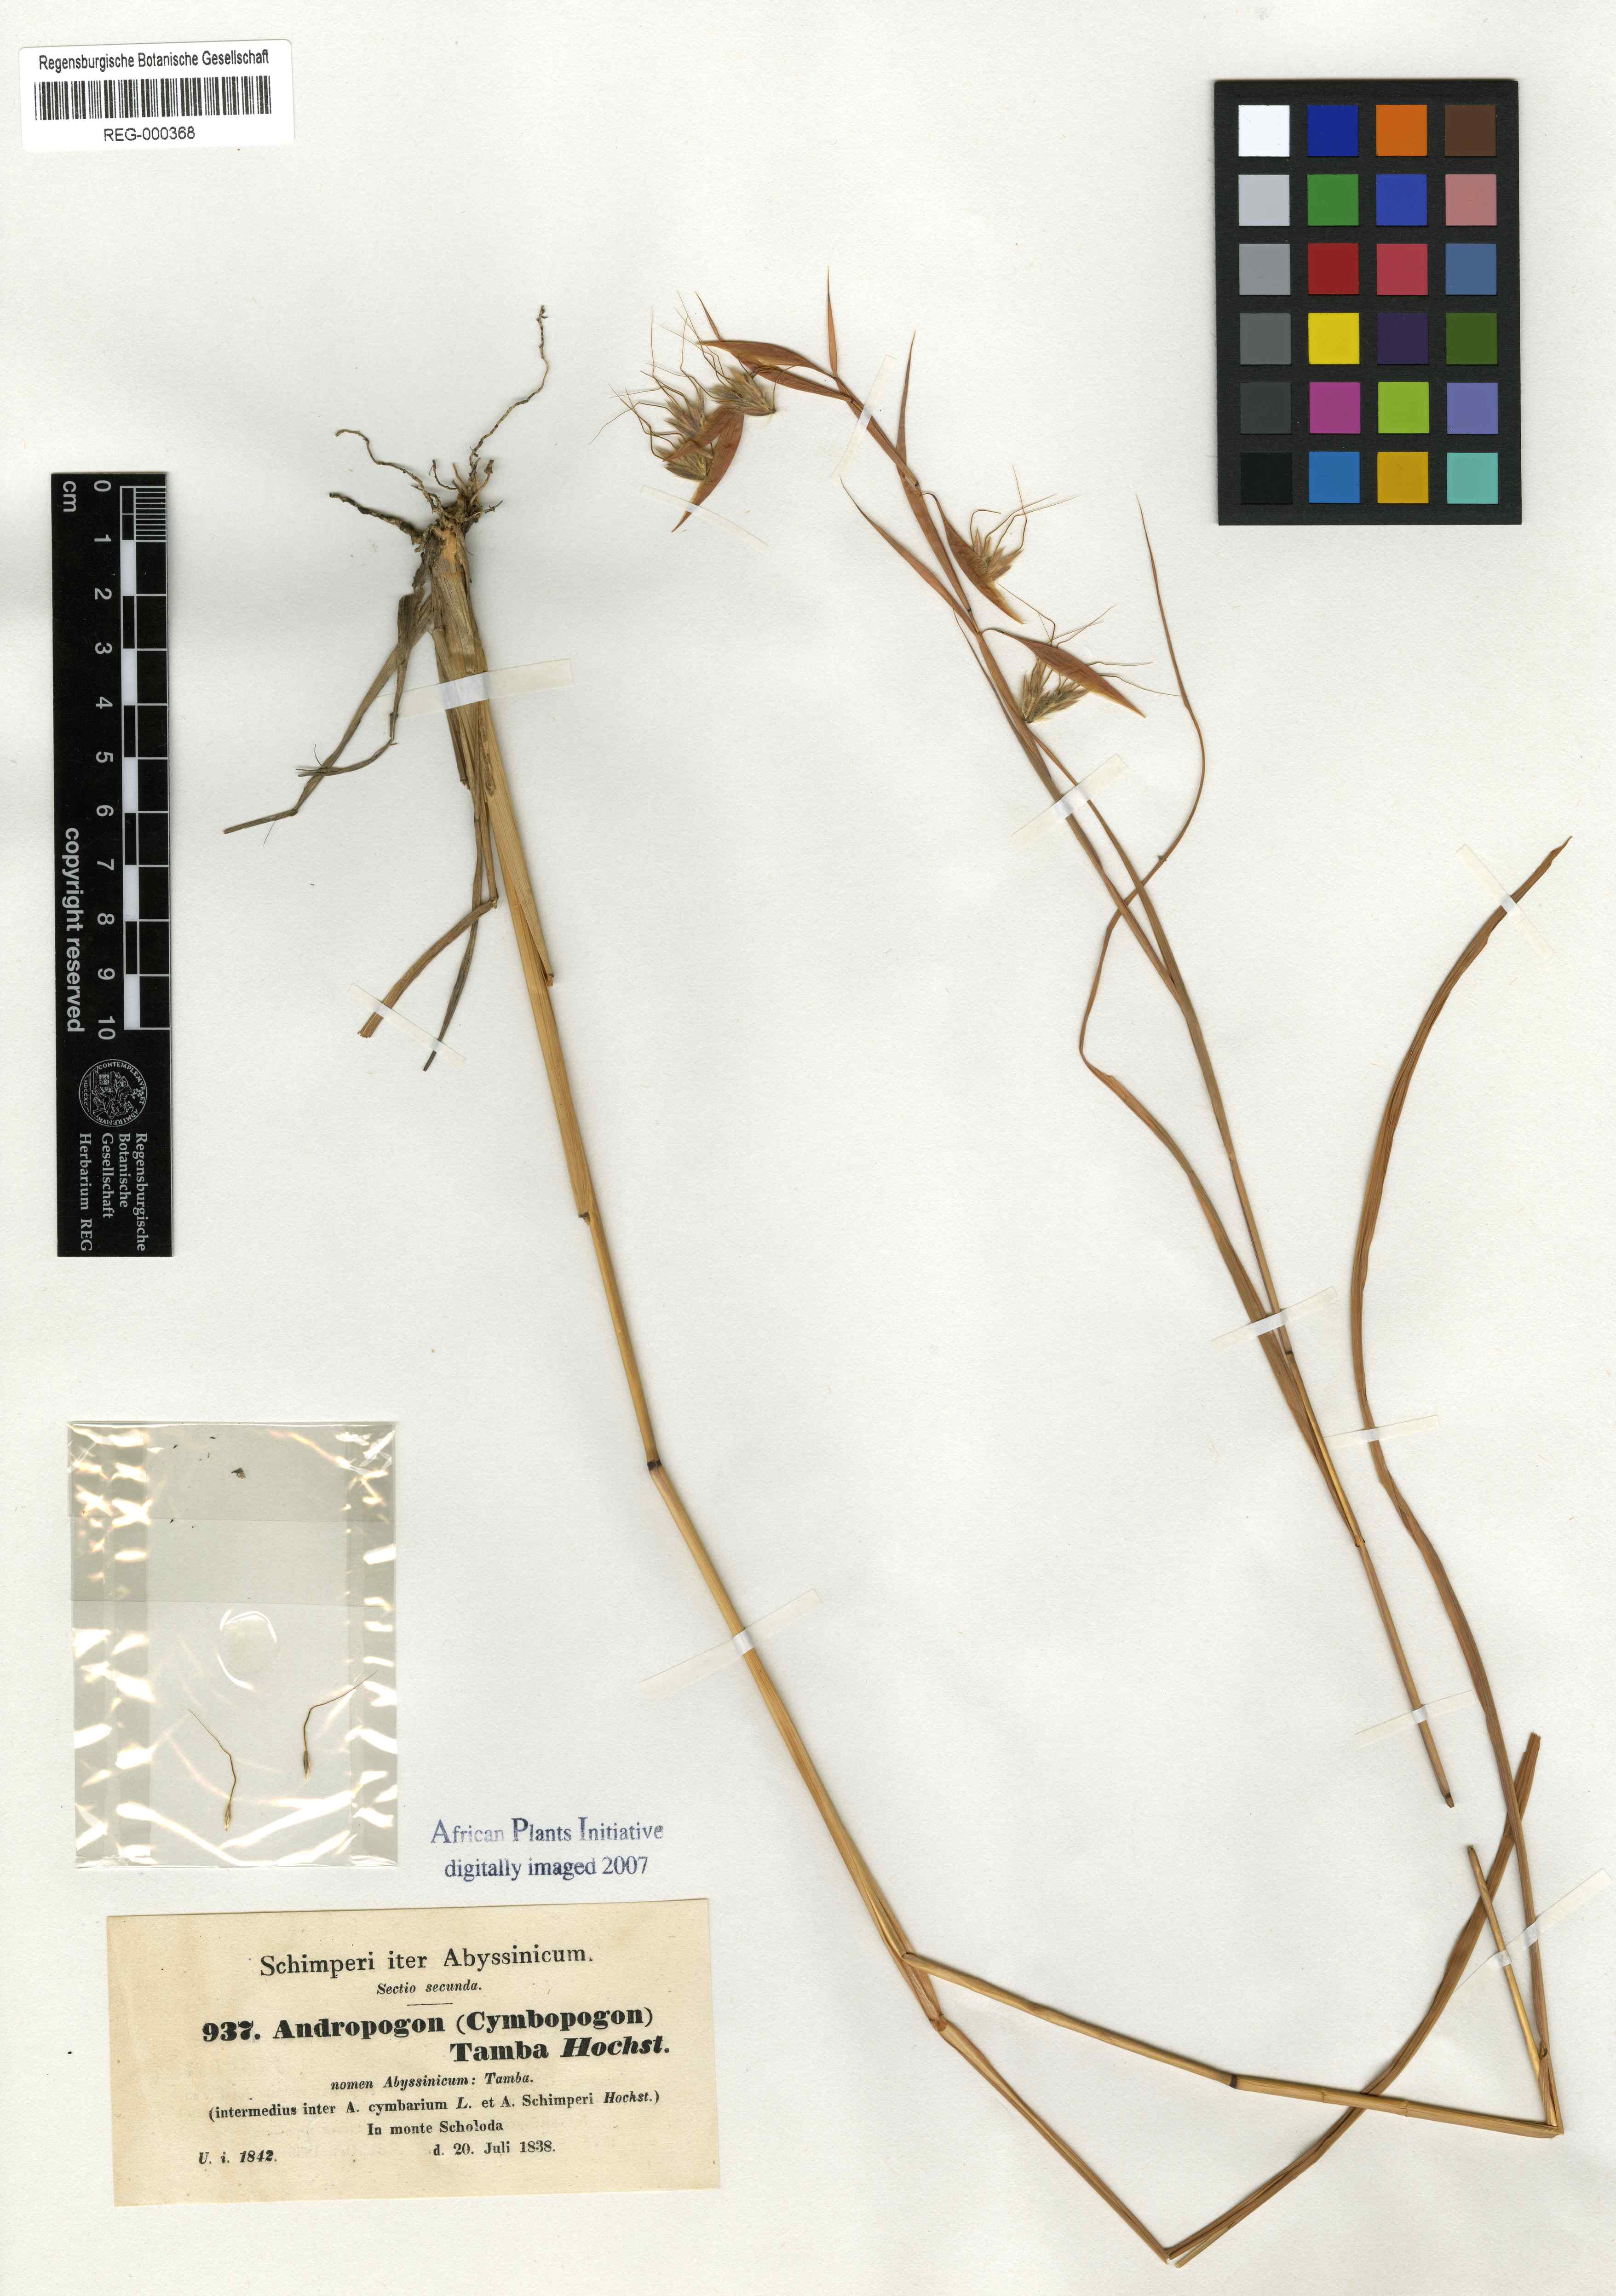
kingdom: Plantae
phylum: Tracheophyta
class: Liliopsida
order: Poales
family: Poaceae
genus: Hyparrhenia
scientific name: Hyparrhenia tamba
